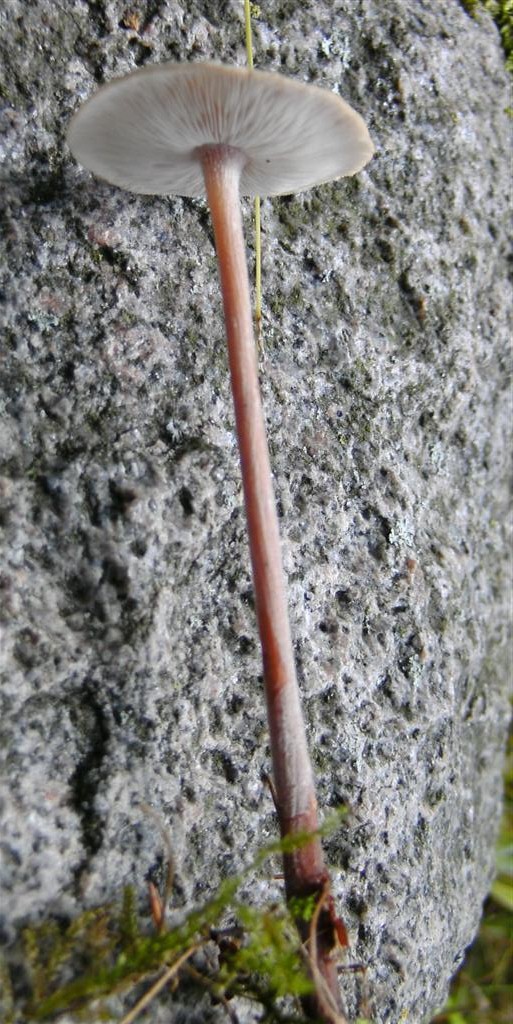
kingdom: Fungi
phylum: Basidiomycota
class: Agaricomycetes
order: Agaricales
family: Omphalotaceae
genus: Collybiopsis
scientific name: Collybiopsis confluens
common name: knippe-fladhat
